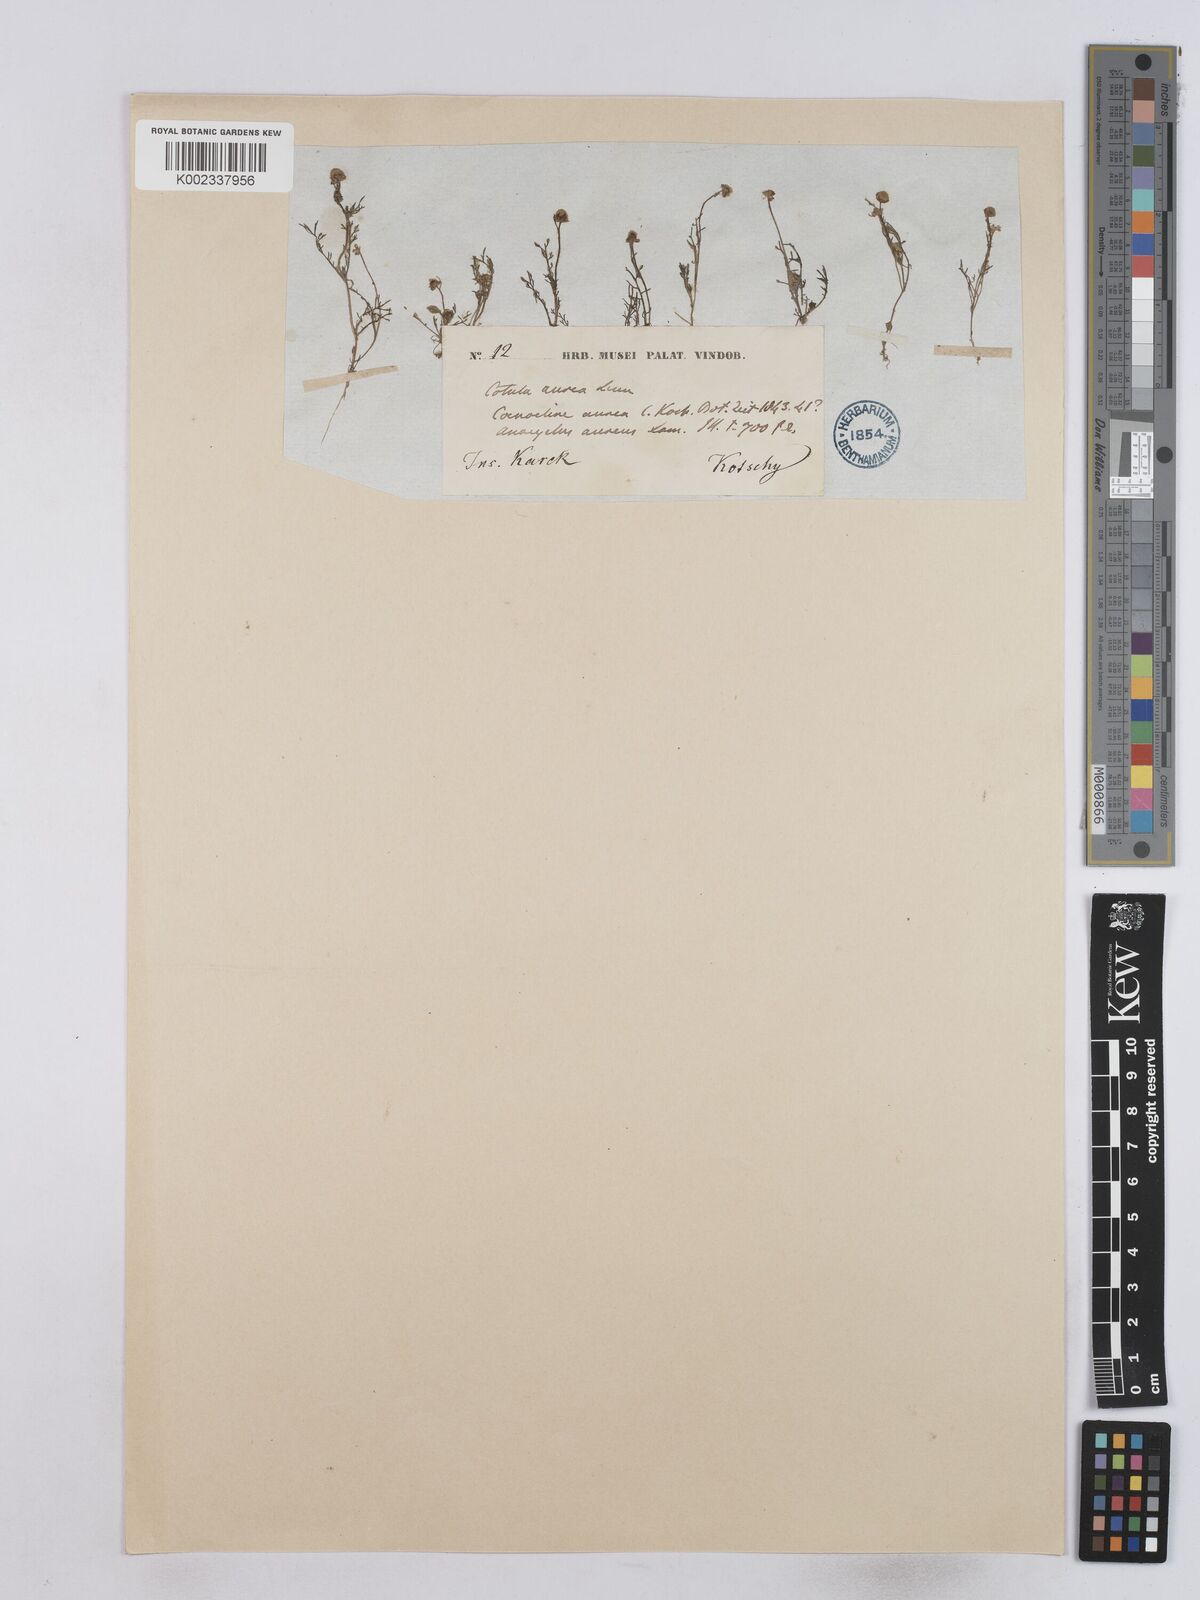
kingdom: Plantae
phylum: Tracheophyta
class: Magnoliopsida
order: Asterales
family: Asteraceae
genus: Matricaria
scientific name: Matricaria aurea
